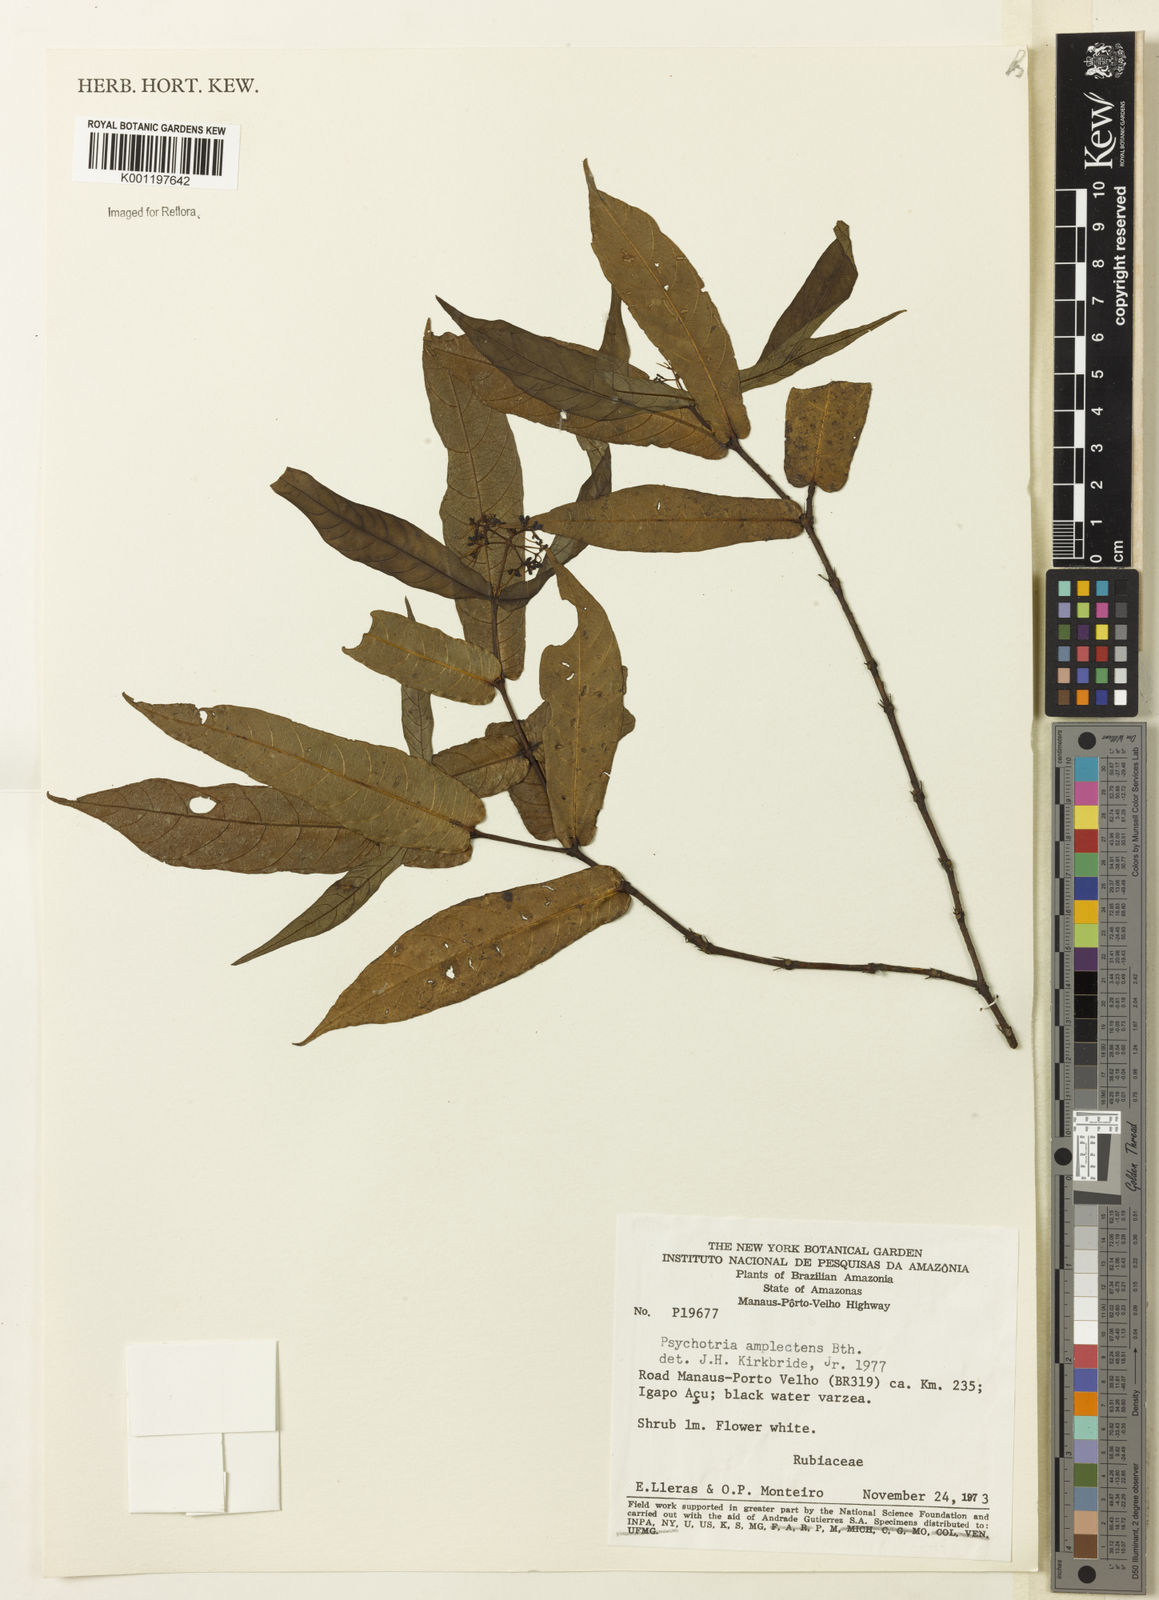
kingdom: Plantae
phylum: Tracheophyta
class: Magnoliopsida
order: Gentianales
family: Rubiaceae
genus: Psychotria
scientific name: Psychotria
